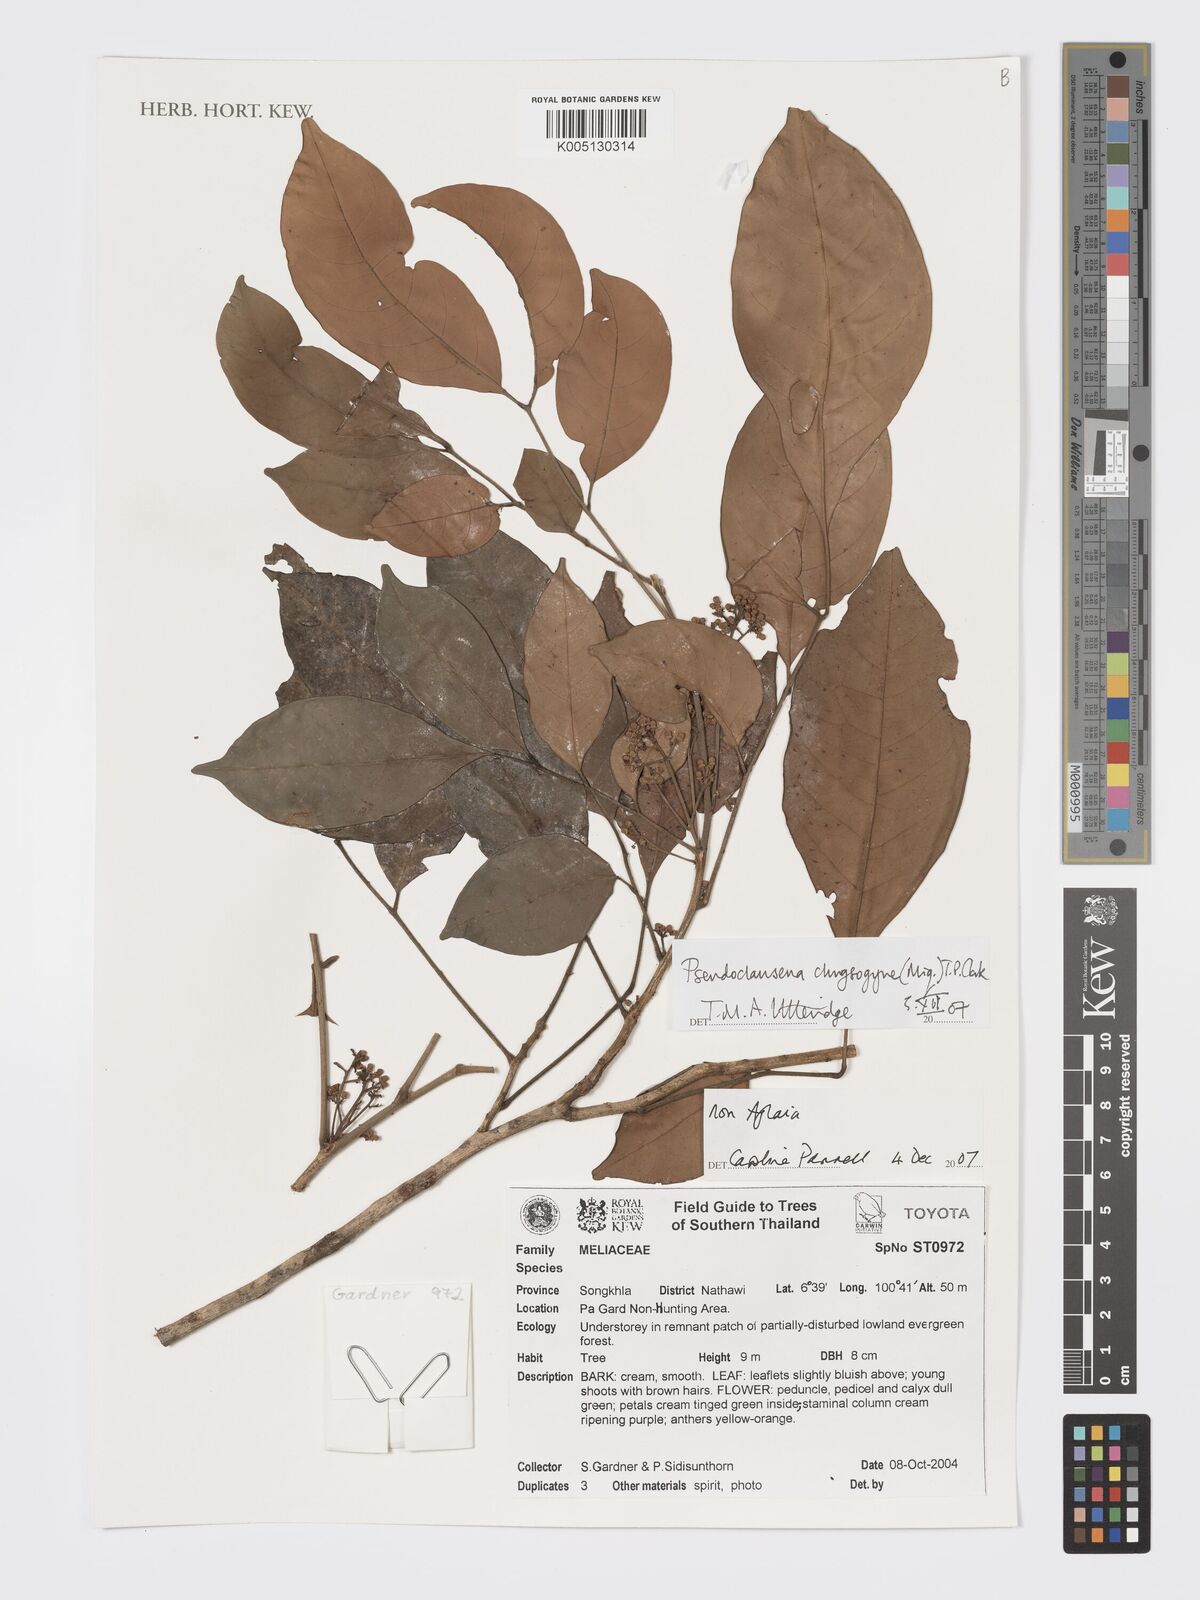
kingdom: Plantae
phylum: Tracheophyta
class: Magnoliopsida
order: Sapindales
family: Meliaceae
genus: Pseudoclausena
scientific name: Pseudoclausena chrysogyne
